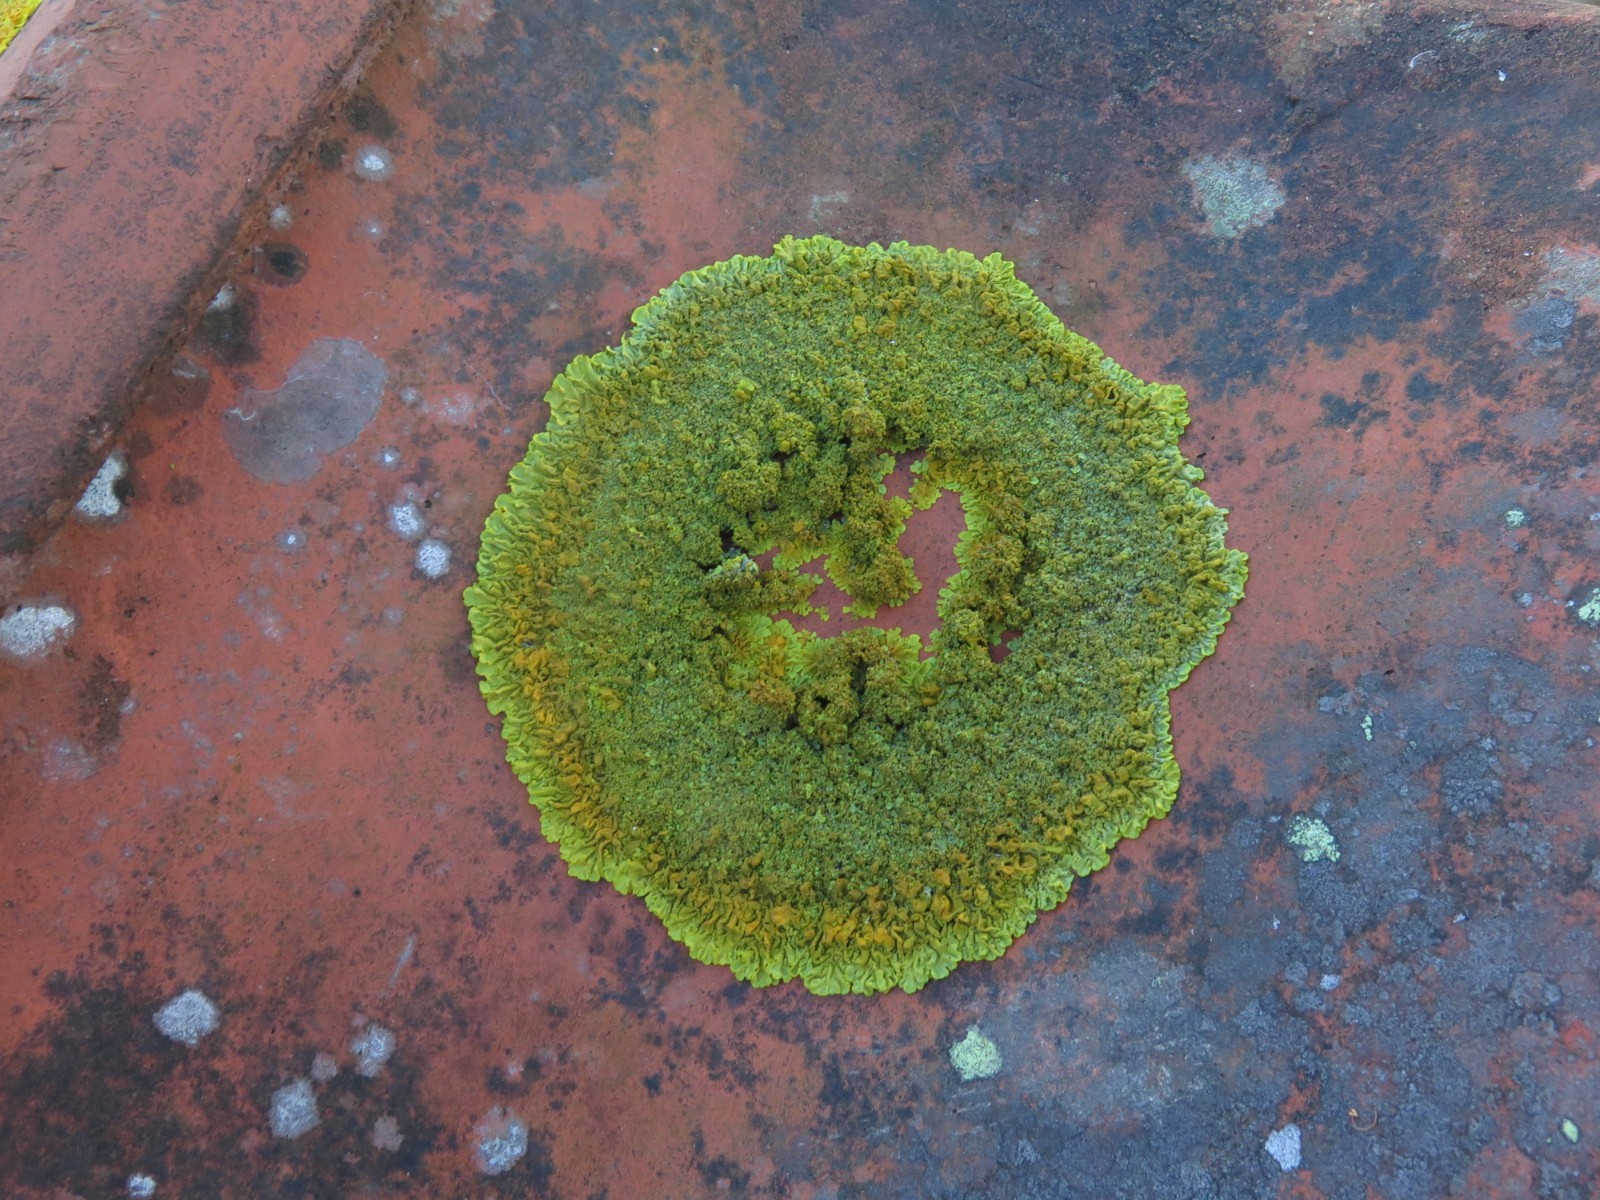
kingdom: Fungi
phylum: Ascomycota
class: Lecanoromycetes
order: Teloschistales
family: Teloschistaceae
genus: Xanthoria
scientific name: Xanthoria calcicola
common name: vortet væggelav
